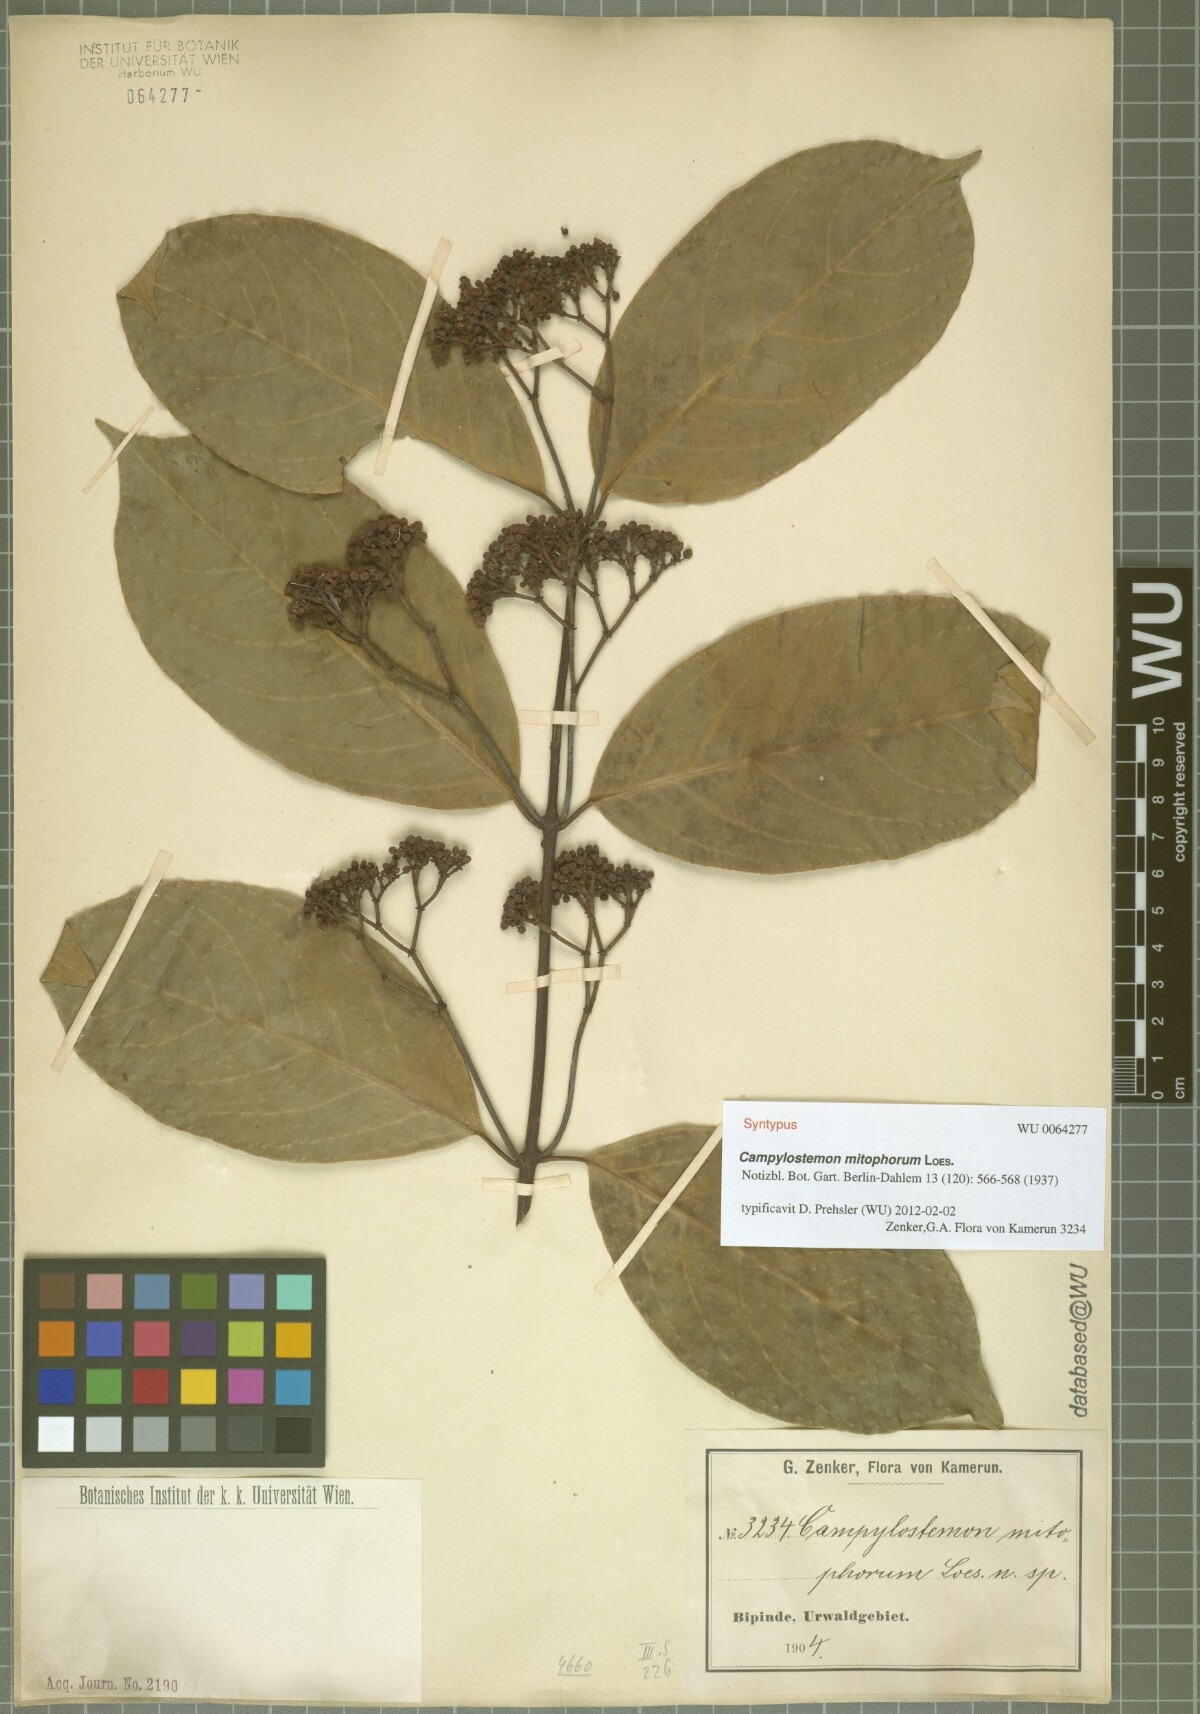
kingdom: Plantae
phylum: Tracheophyta
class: Magnoliopsida
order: Celastrales
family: Celastraceae
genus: Campylostemon
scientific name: Campylostemon mitophorum
